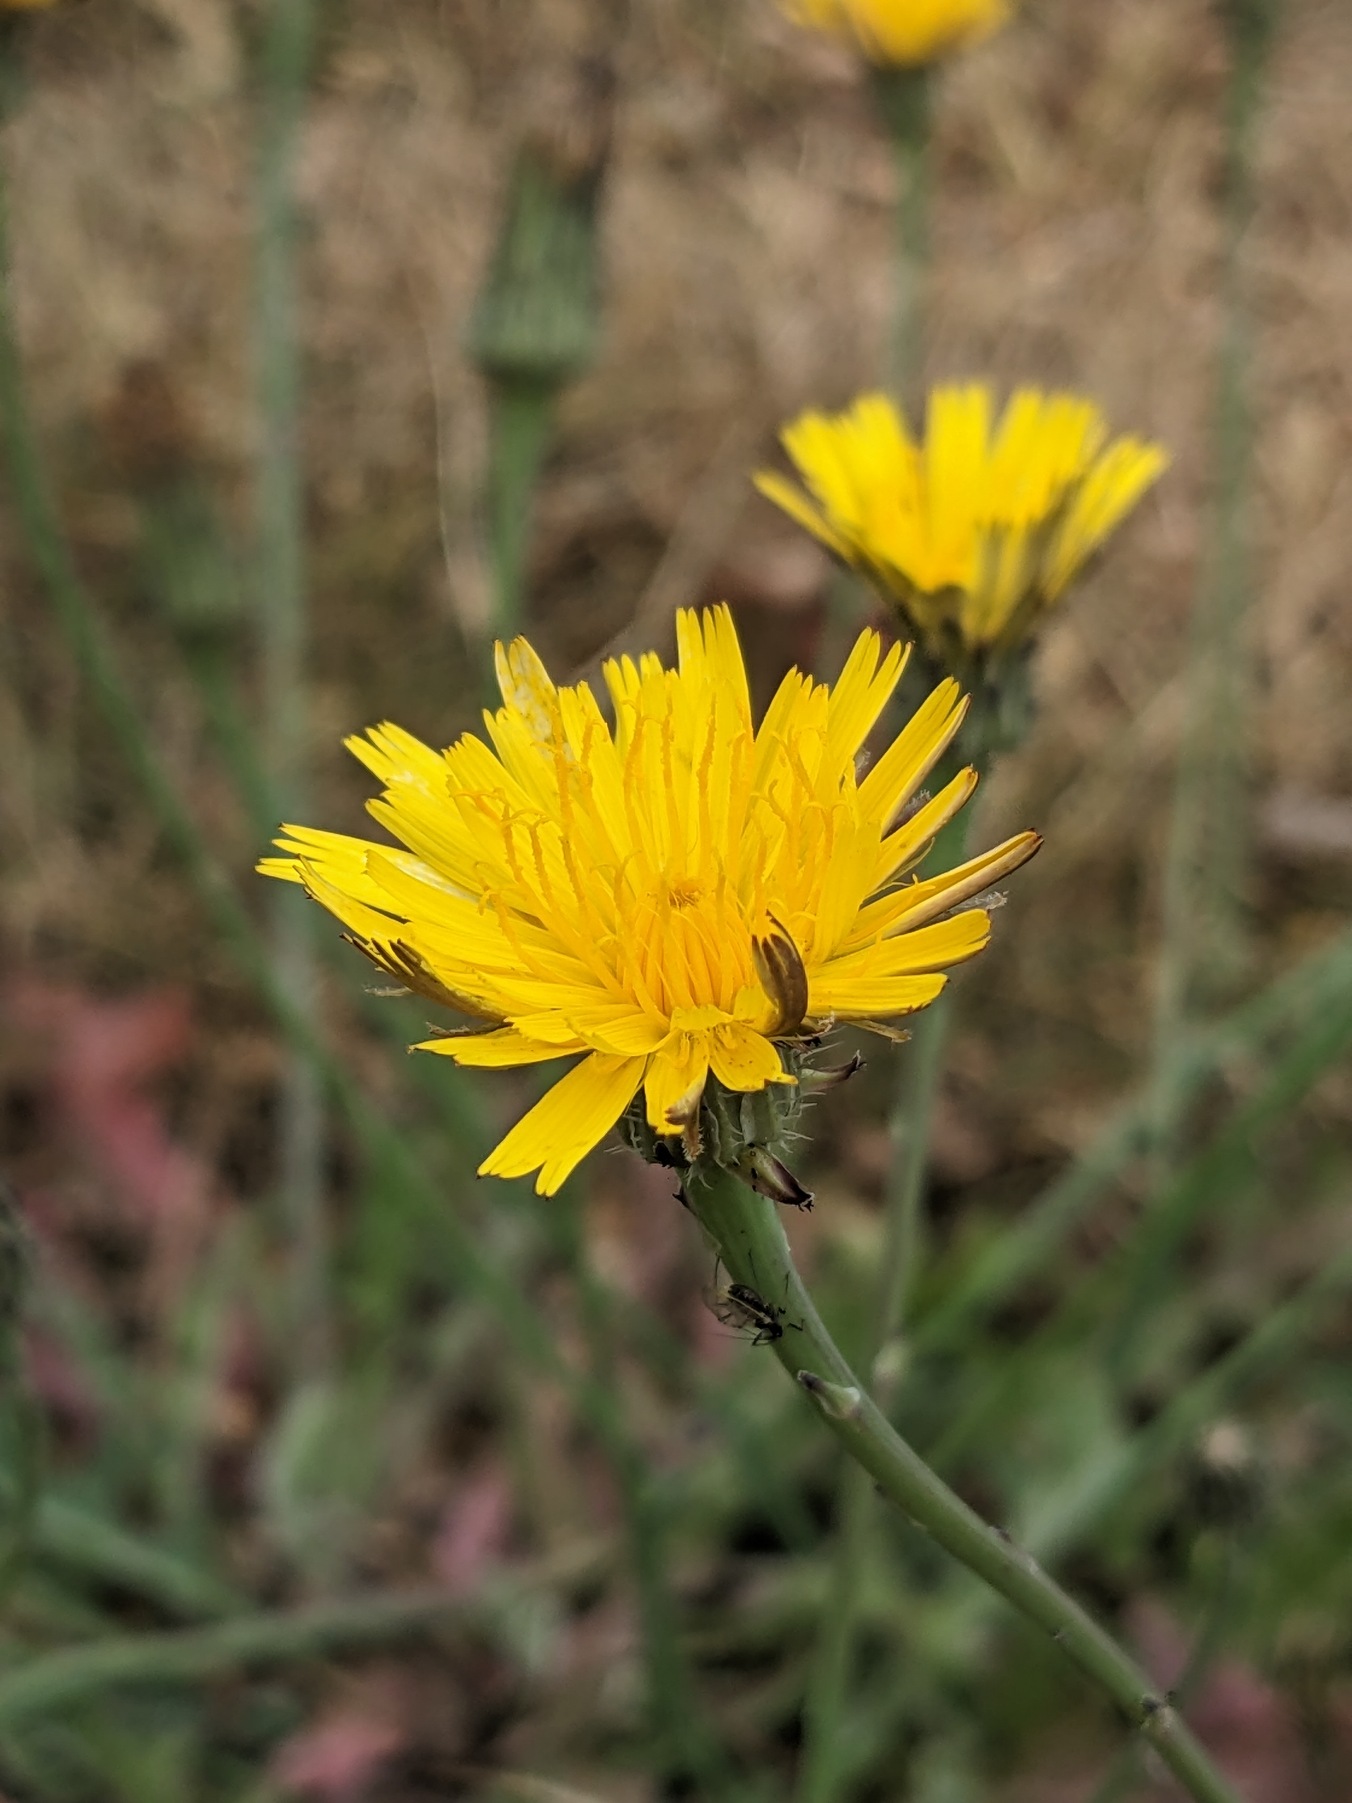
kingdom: Plantae
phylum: Tracheophyta
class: Magnoliopsida
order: Asterales
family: Asteraceae
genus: Hypochaeris
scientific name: Hypochaeris radicata
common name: Almindelig kongepen
